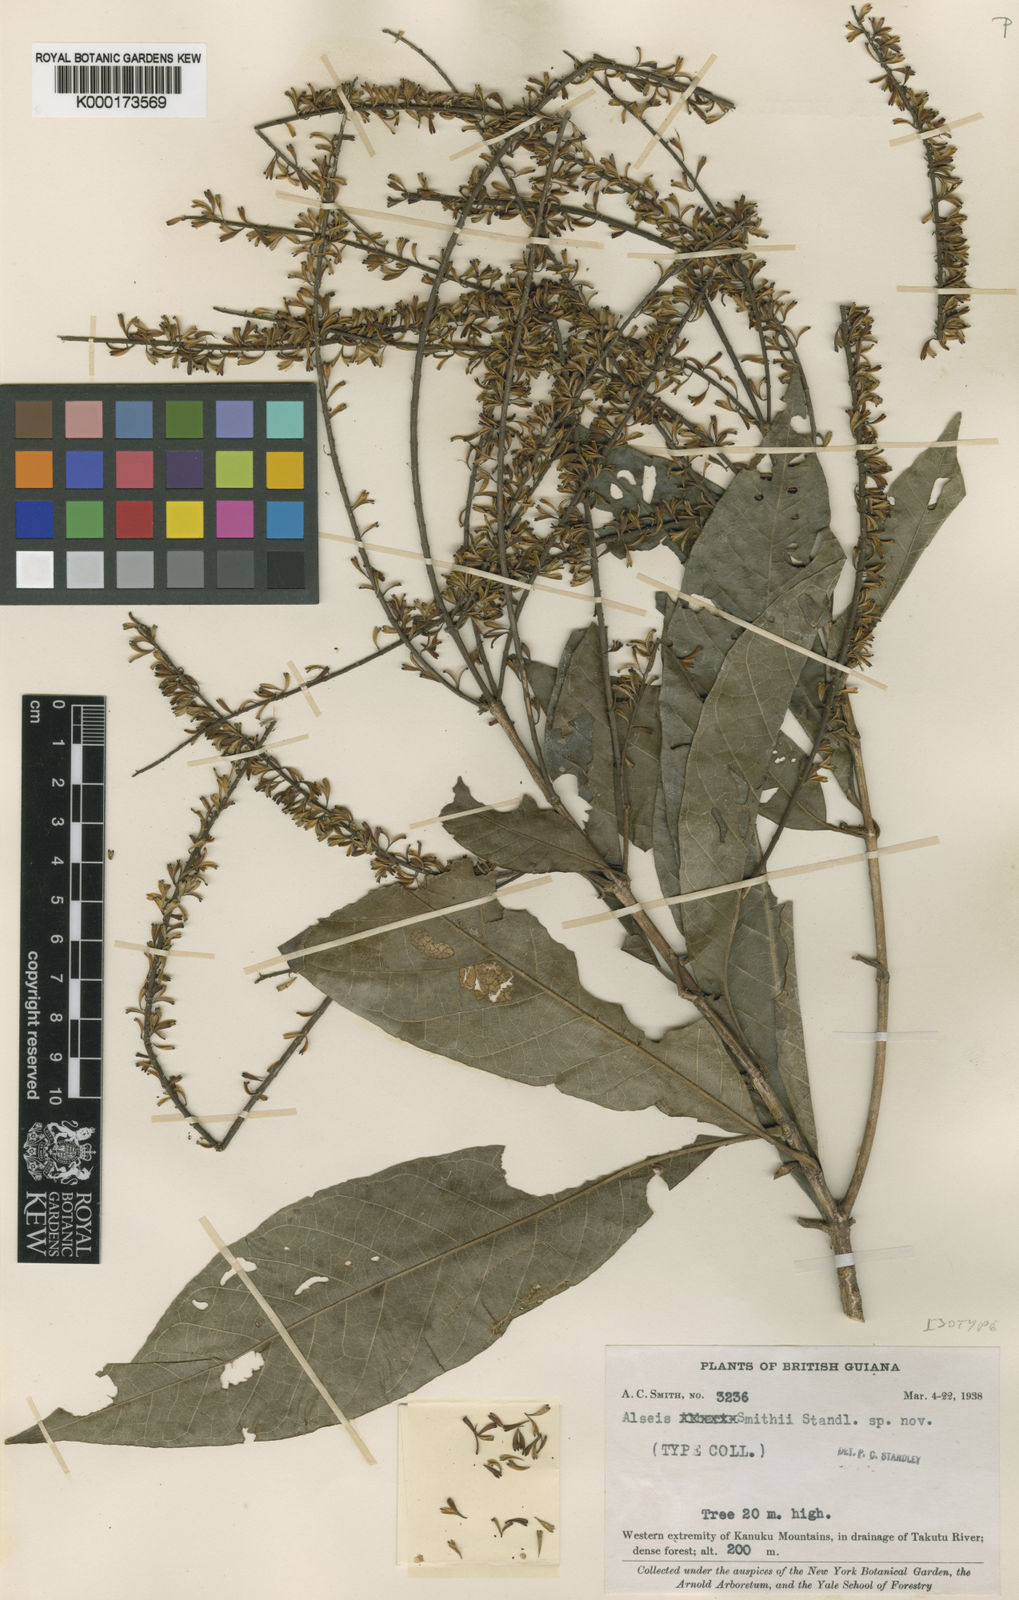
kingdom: Plantae
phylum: Tracheophyta
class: Magnoliopsida
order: Gentianales
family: Rubiaceae
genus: Alseis
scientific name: Alseis smithii
